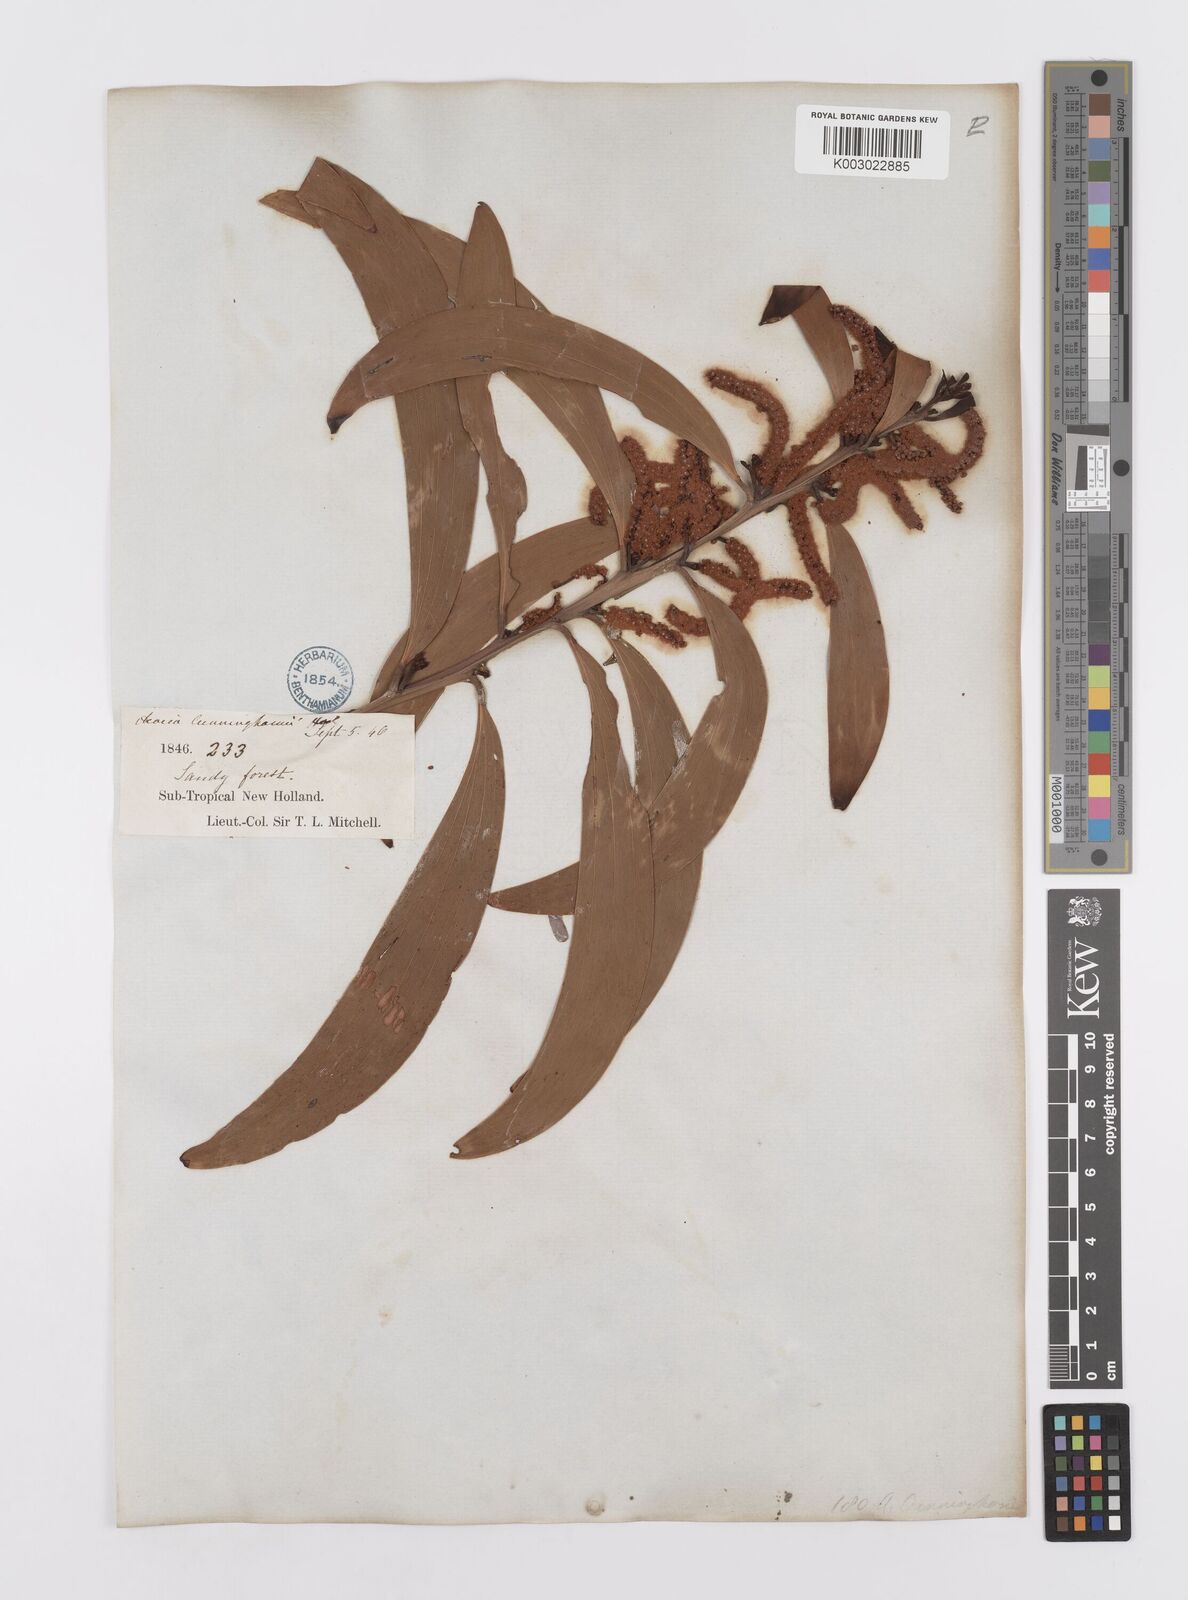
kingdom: Plantae
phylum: Tracheophyta
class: Magnoliopsida
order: Fabales
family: Fabaceae
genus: Acacia
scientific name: Acacia longispicata
